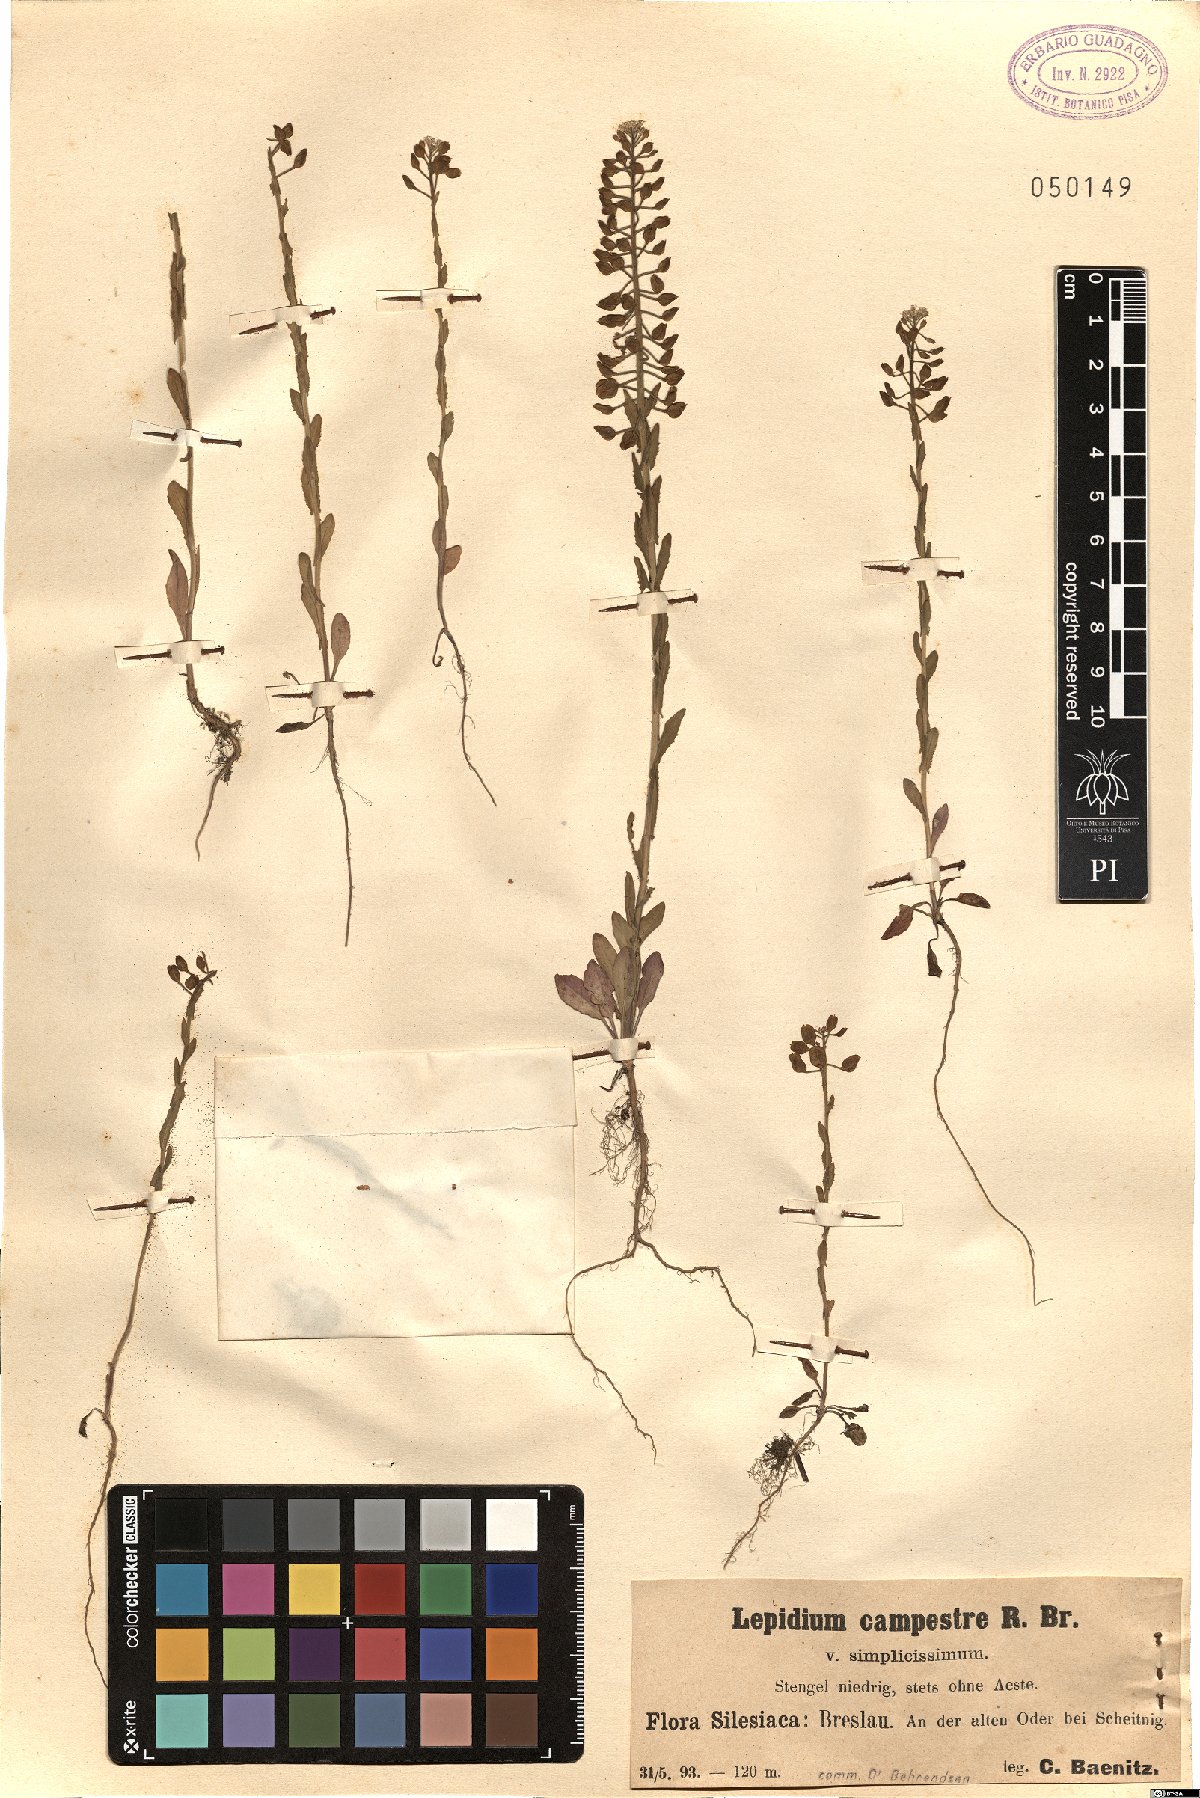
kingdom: Plantae
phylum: Tracheophyta
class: Magnoliopsida
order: Brassicales
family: Brassicaceae
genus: Lepidium
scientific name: Lepidium campestre
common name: Field pepperwort
